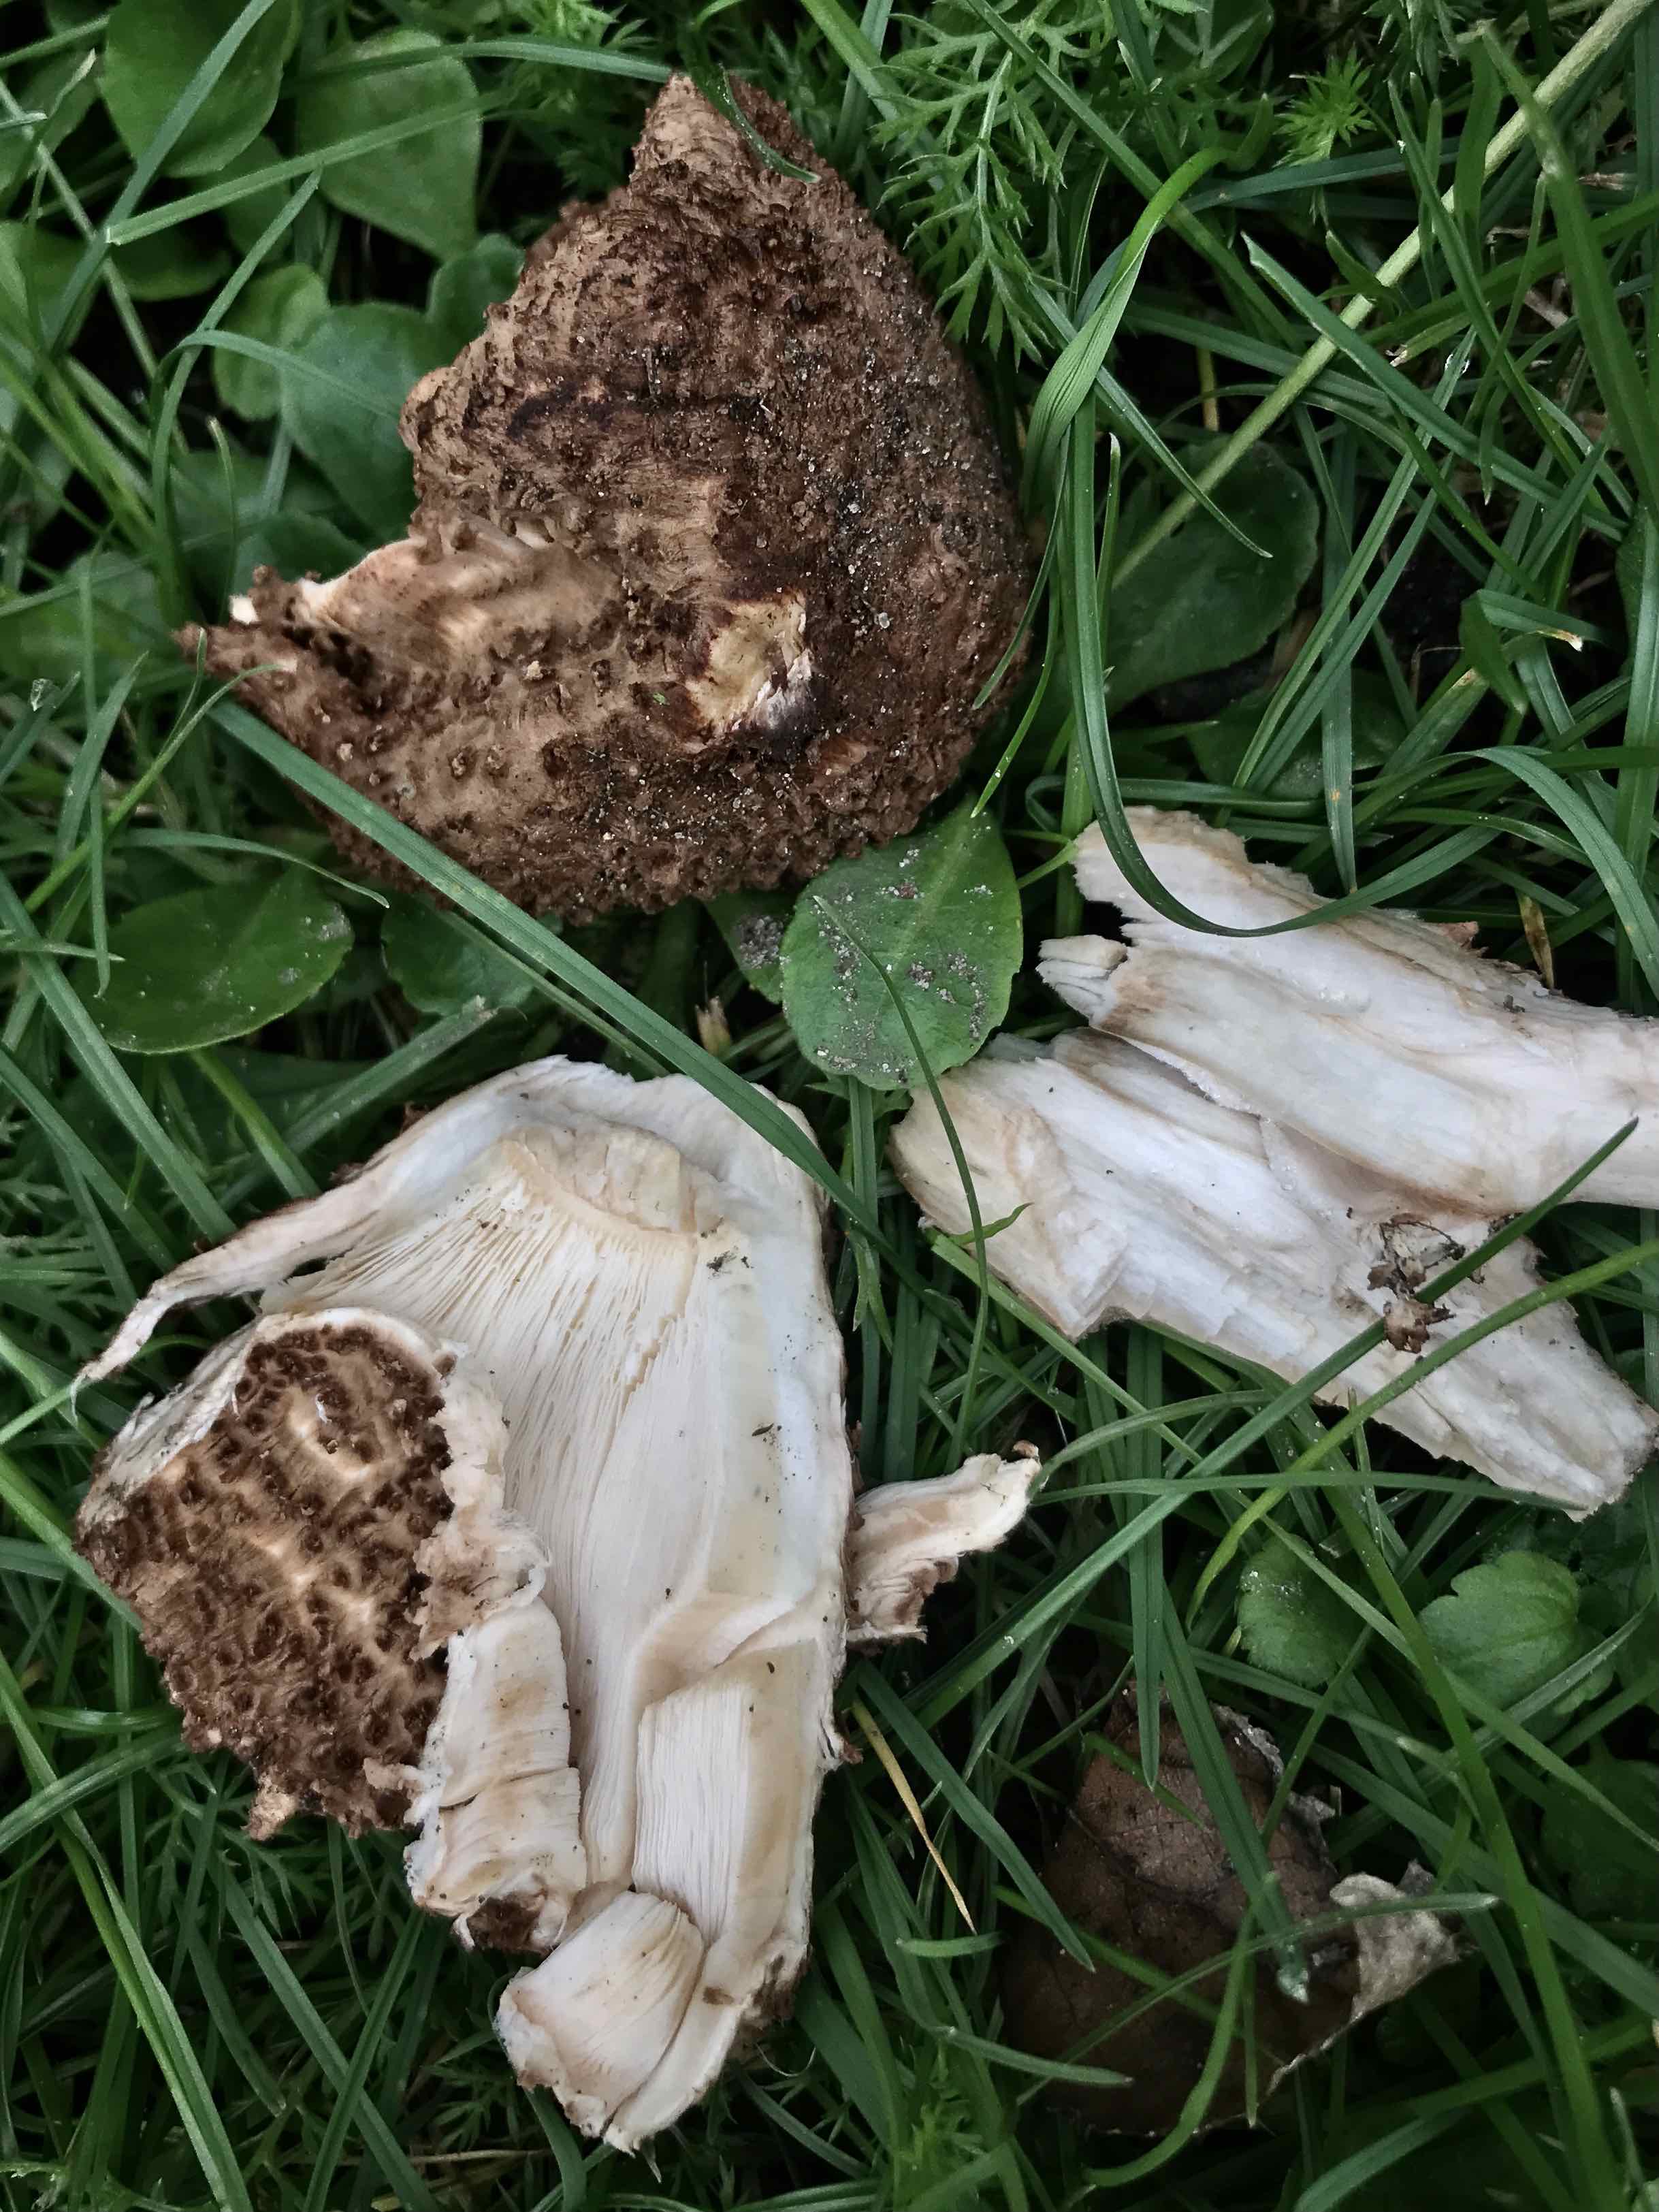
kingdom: Fungi
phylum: Basidiomycota
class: Agaricomycetes
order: Agaricales
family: Agaricaceae
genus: Echinoderma
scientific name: Echinoderma asperum
